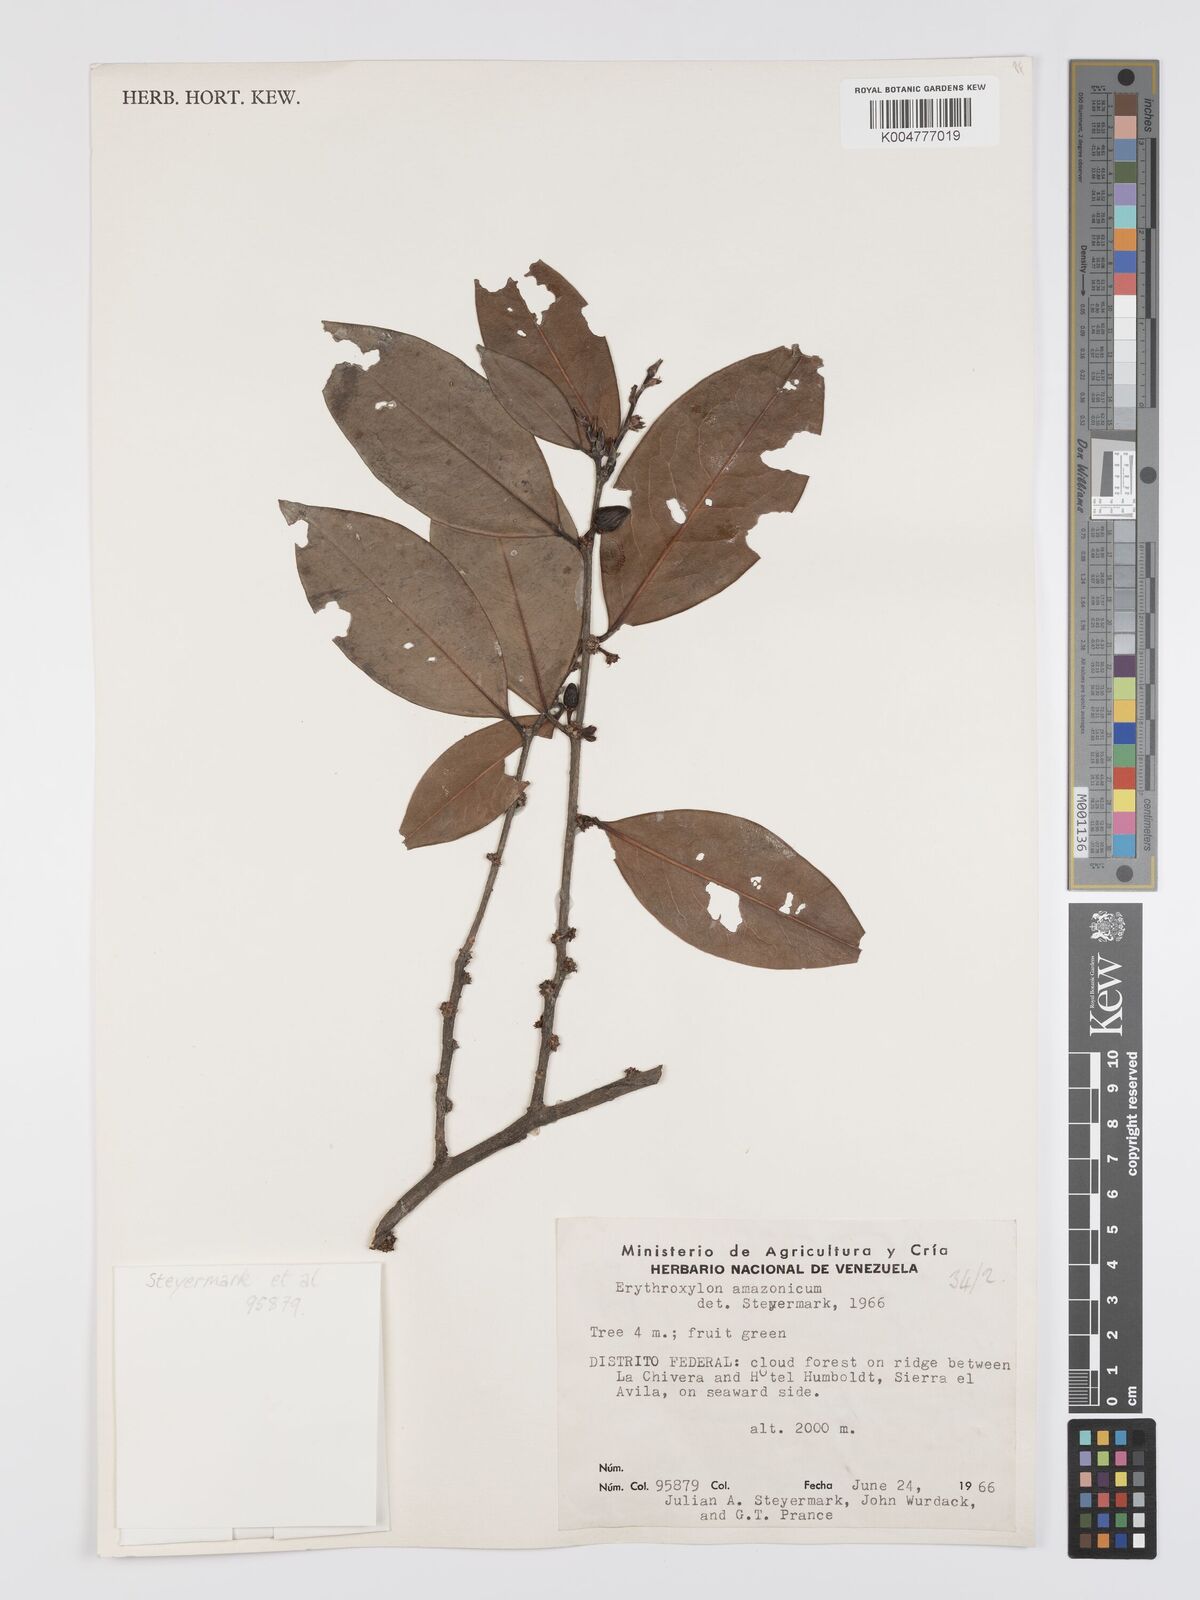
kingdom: Plantae
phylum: Tracheophyta
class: Magnoliopsida
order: Malpighiales
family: Erythroxylaceae
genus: Erythroxylum
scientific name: Erythroxylum amazonicum
